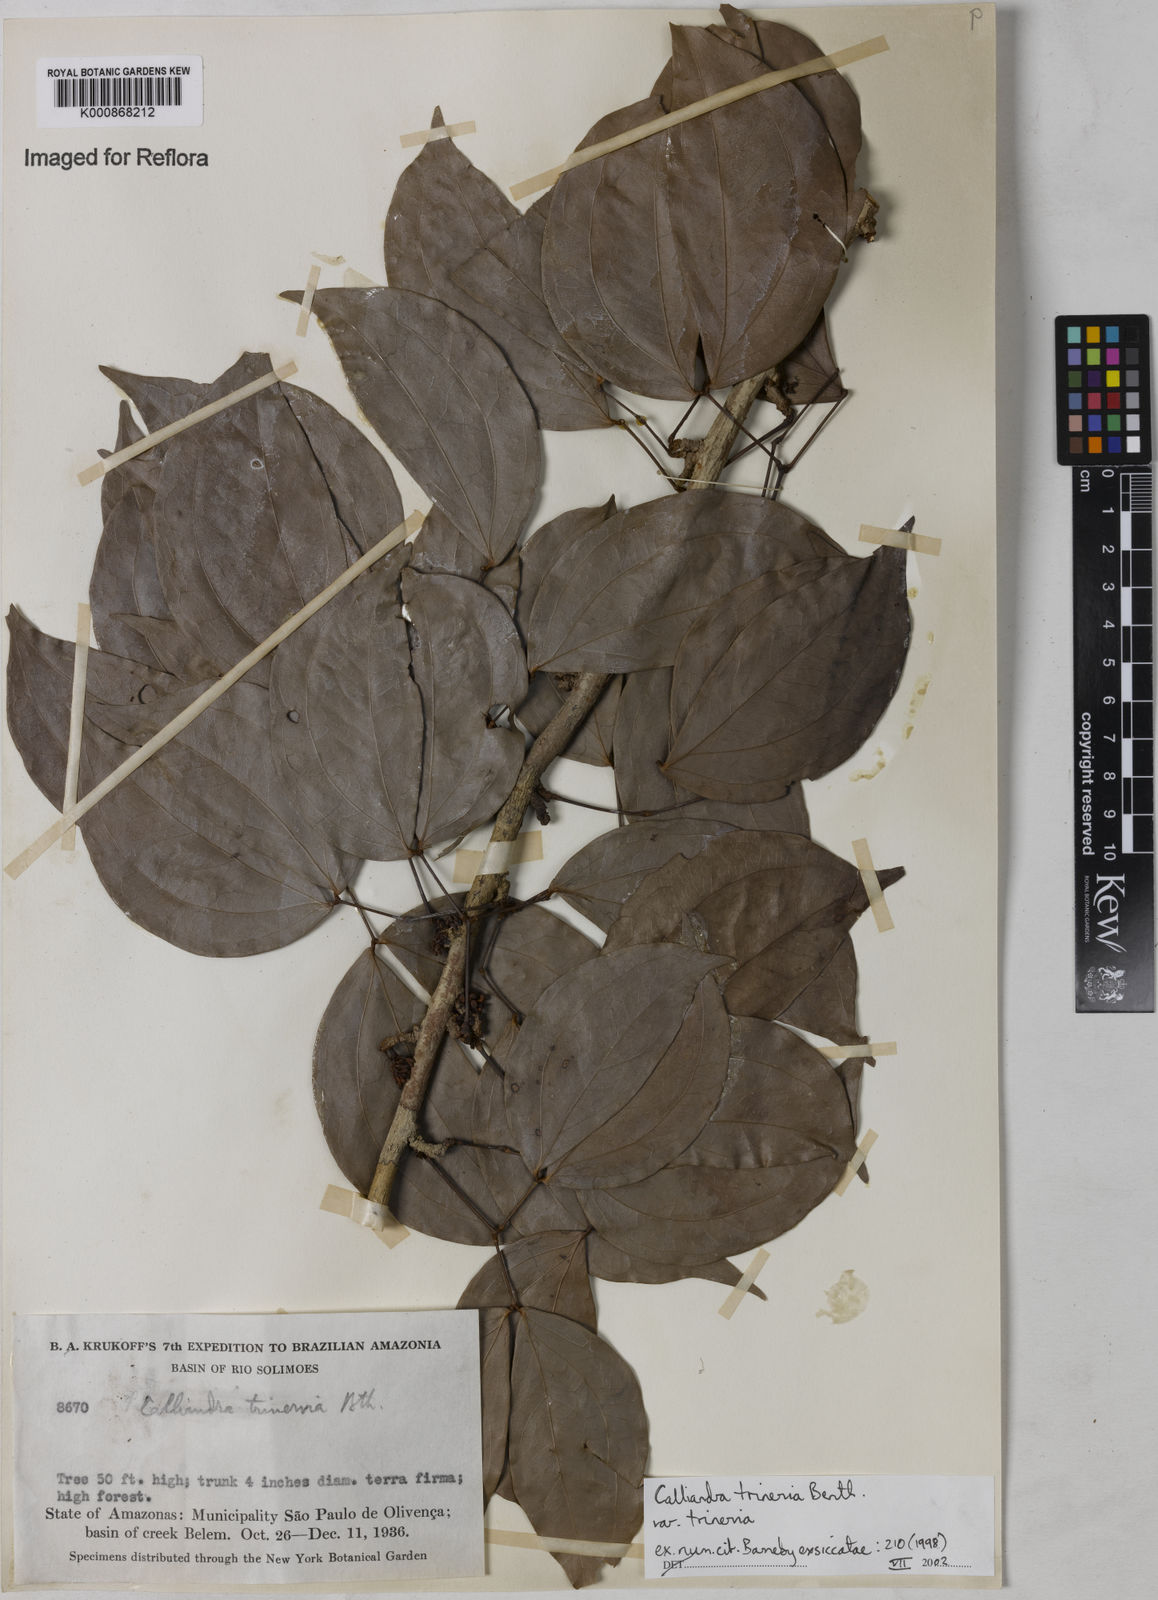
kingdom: Plantae
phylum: Tracheophyta
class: Magnoliopsida
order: Fabales
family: Fabaceae
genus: Calliandra
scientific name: Calliandra trinervia
